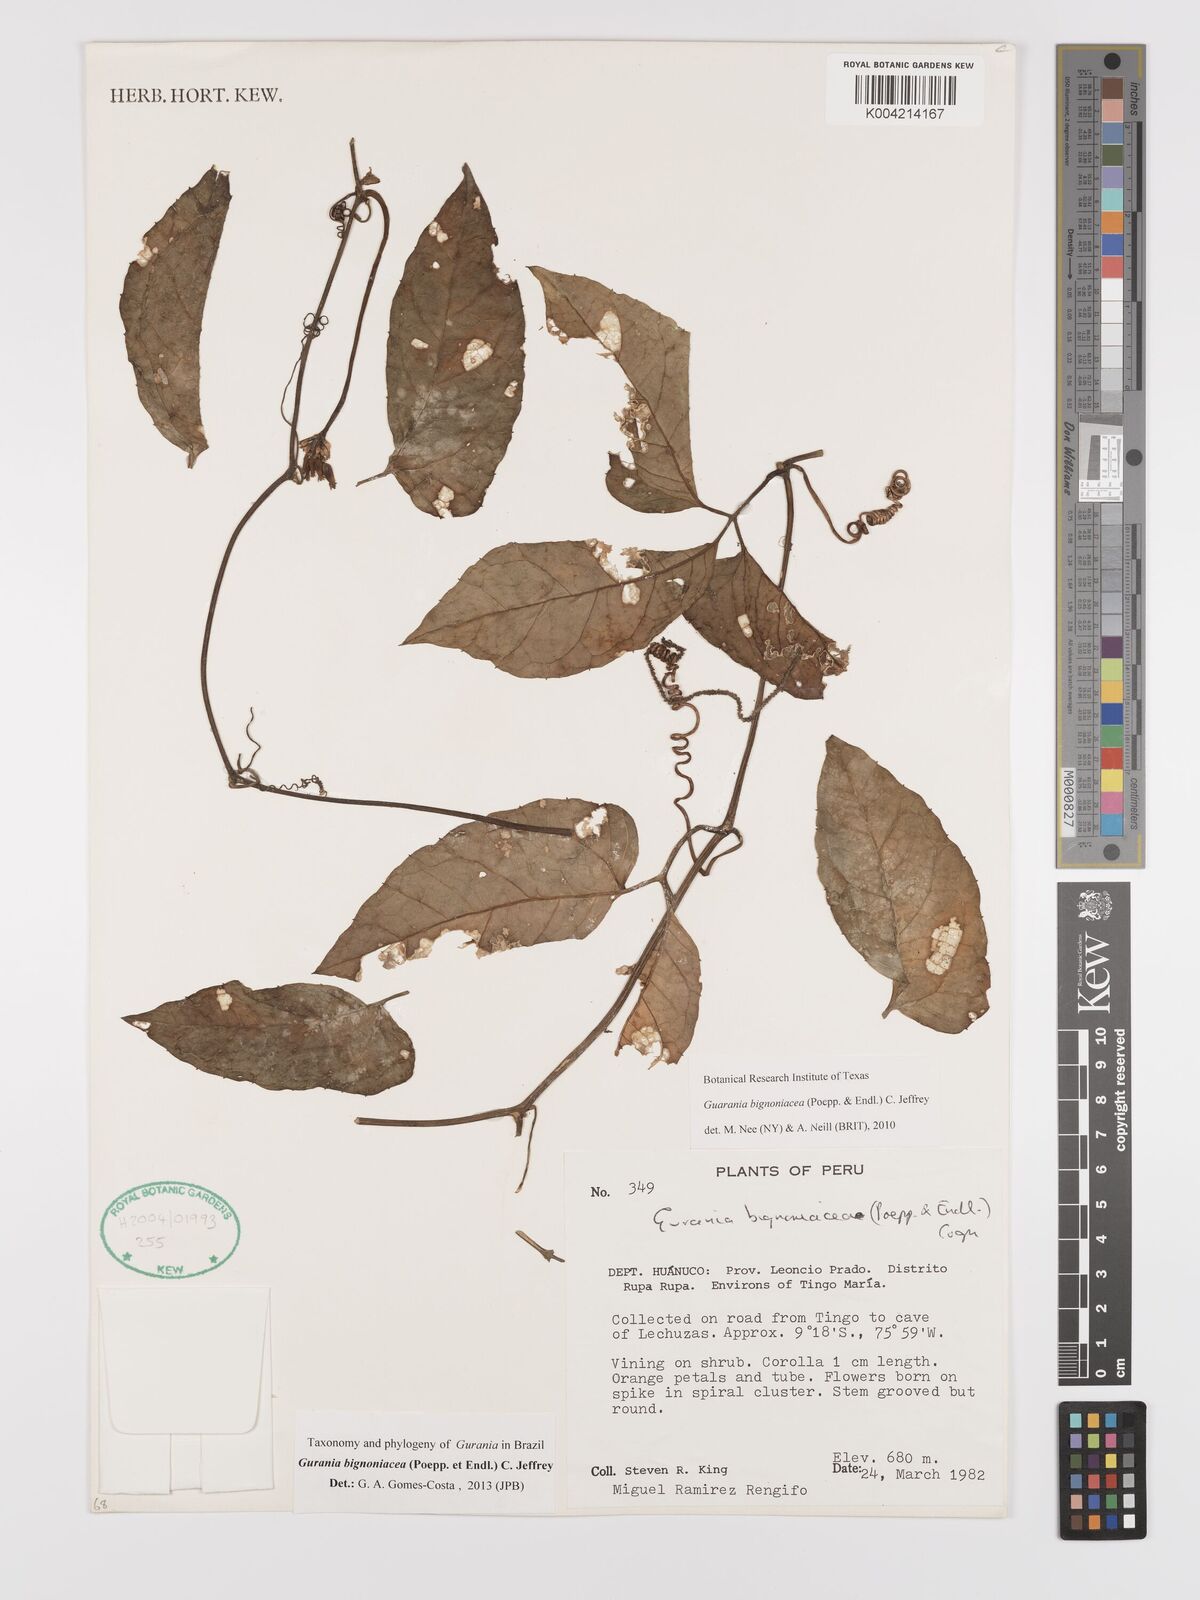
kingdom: Plantae
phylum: Tracheophyta
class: Magnoliopsida
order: Cucurbitales
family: Cucurbitaceae
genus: Gurania
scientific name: Gurania bignoniacea
